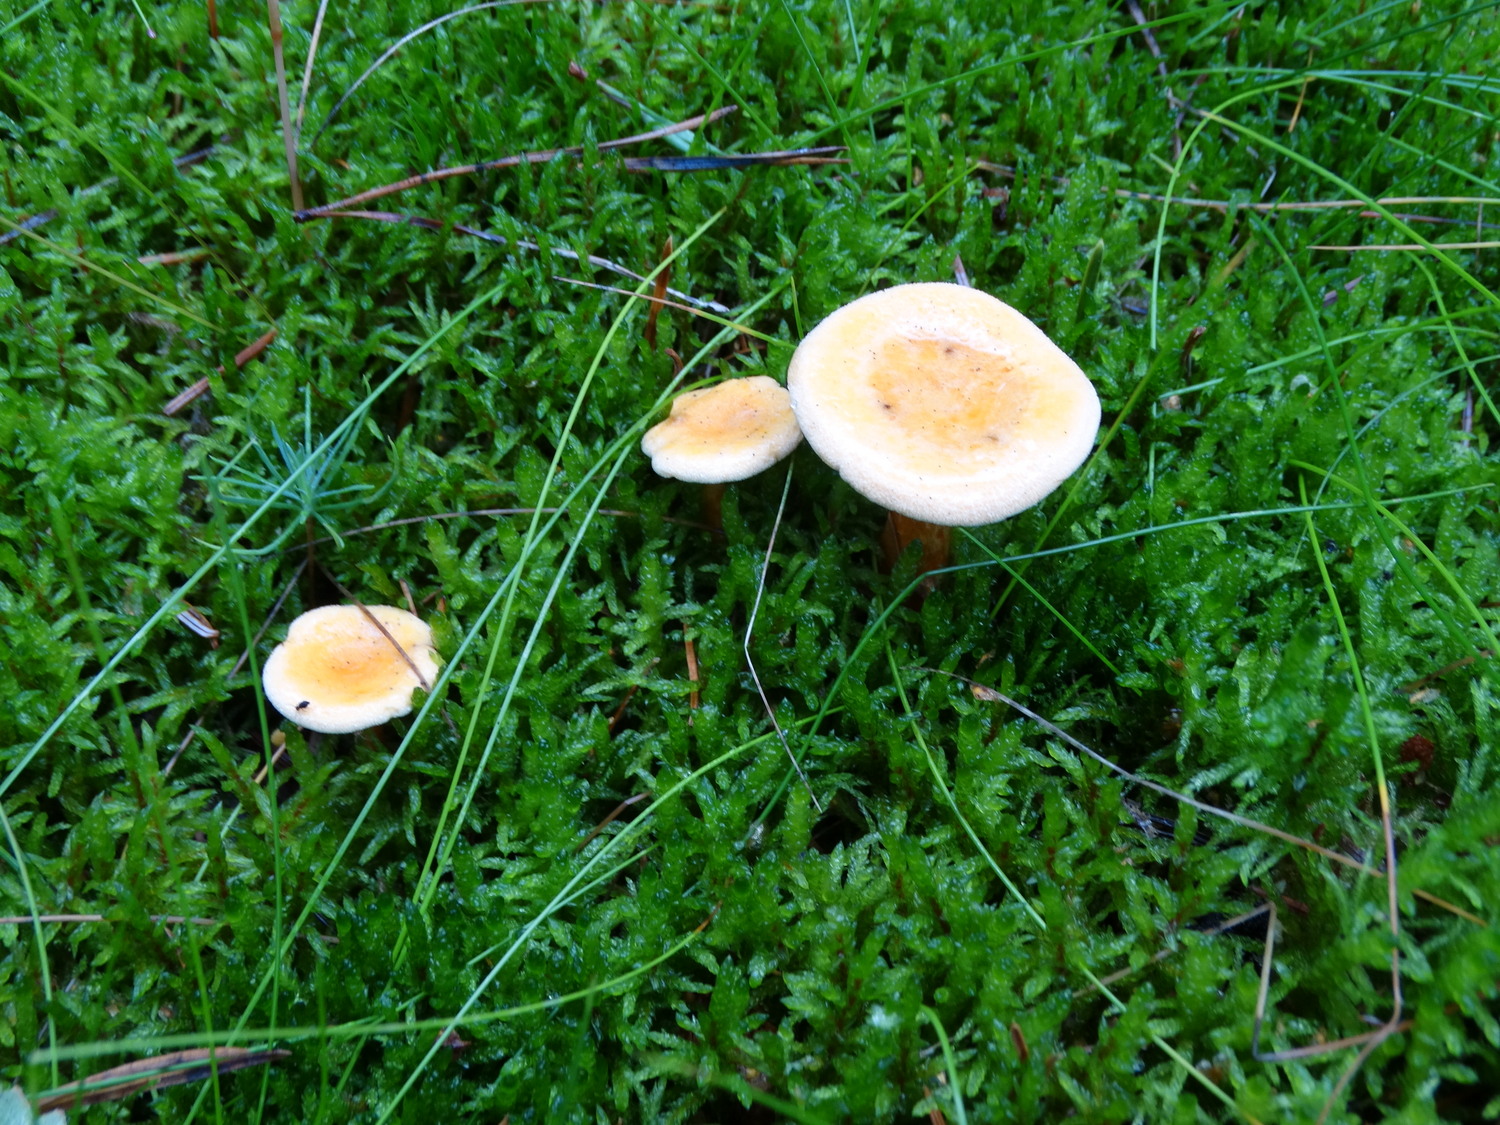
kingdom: Fungi
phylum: Basidiomycota
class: Agaricomycetes
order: Boletales
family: Hygrophoropsidaceae
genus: Hygrophoropsis
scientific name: Hygrophoropsis aurantiaca
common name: almindelig orangekantarel
